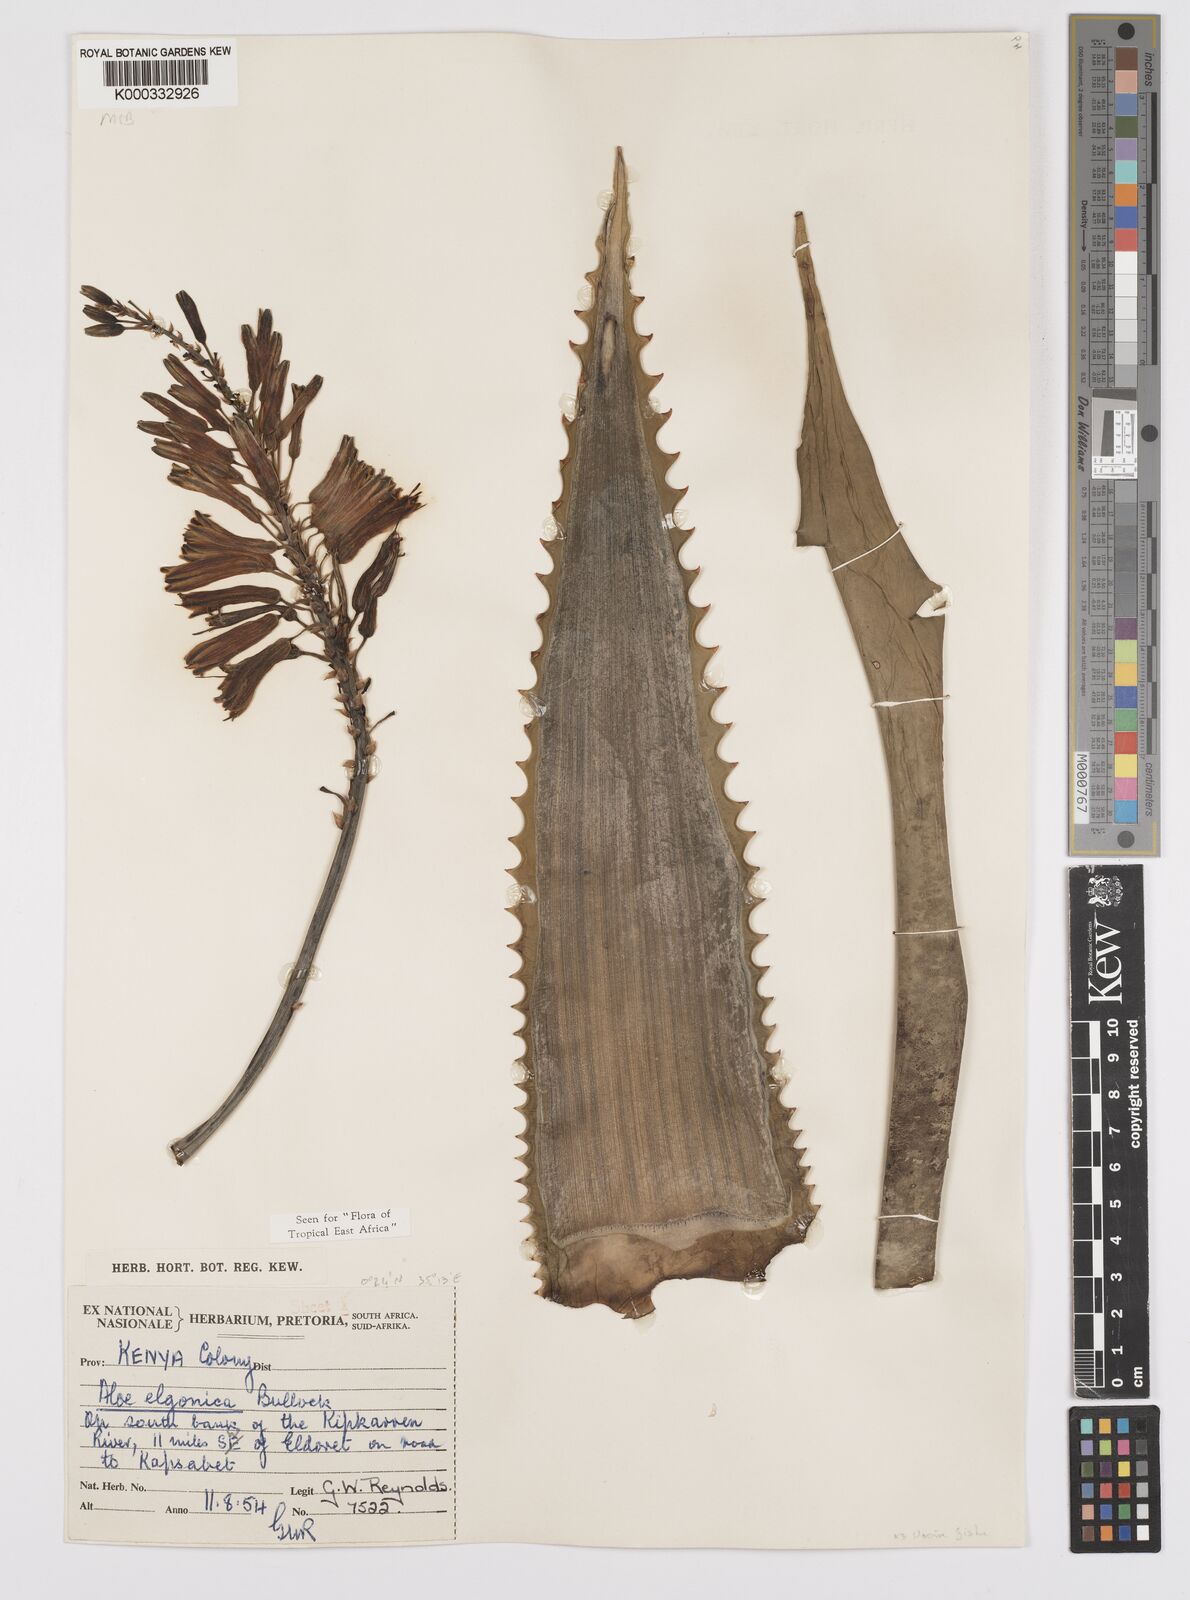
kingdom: Plantae
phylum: Tracheophyta
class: Liliopsida
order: Asparagales
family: Asphodelaceae
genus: Aloe
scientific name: Aloe elgonica
